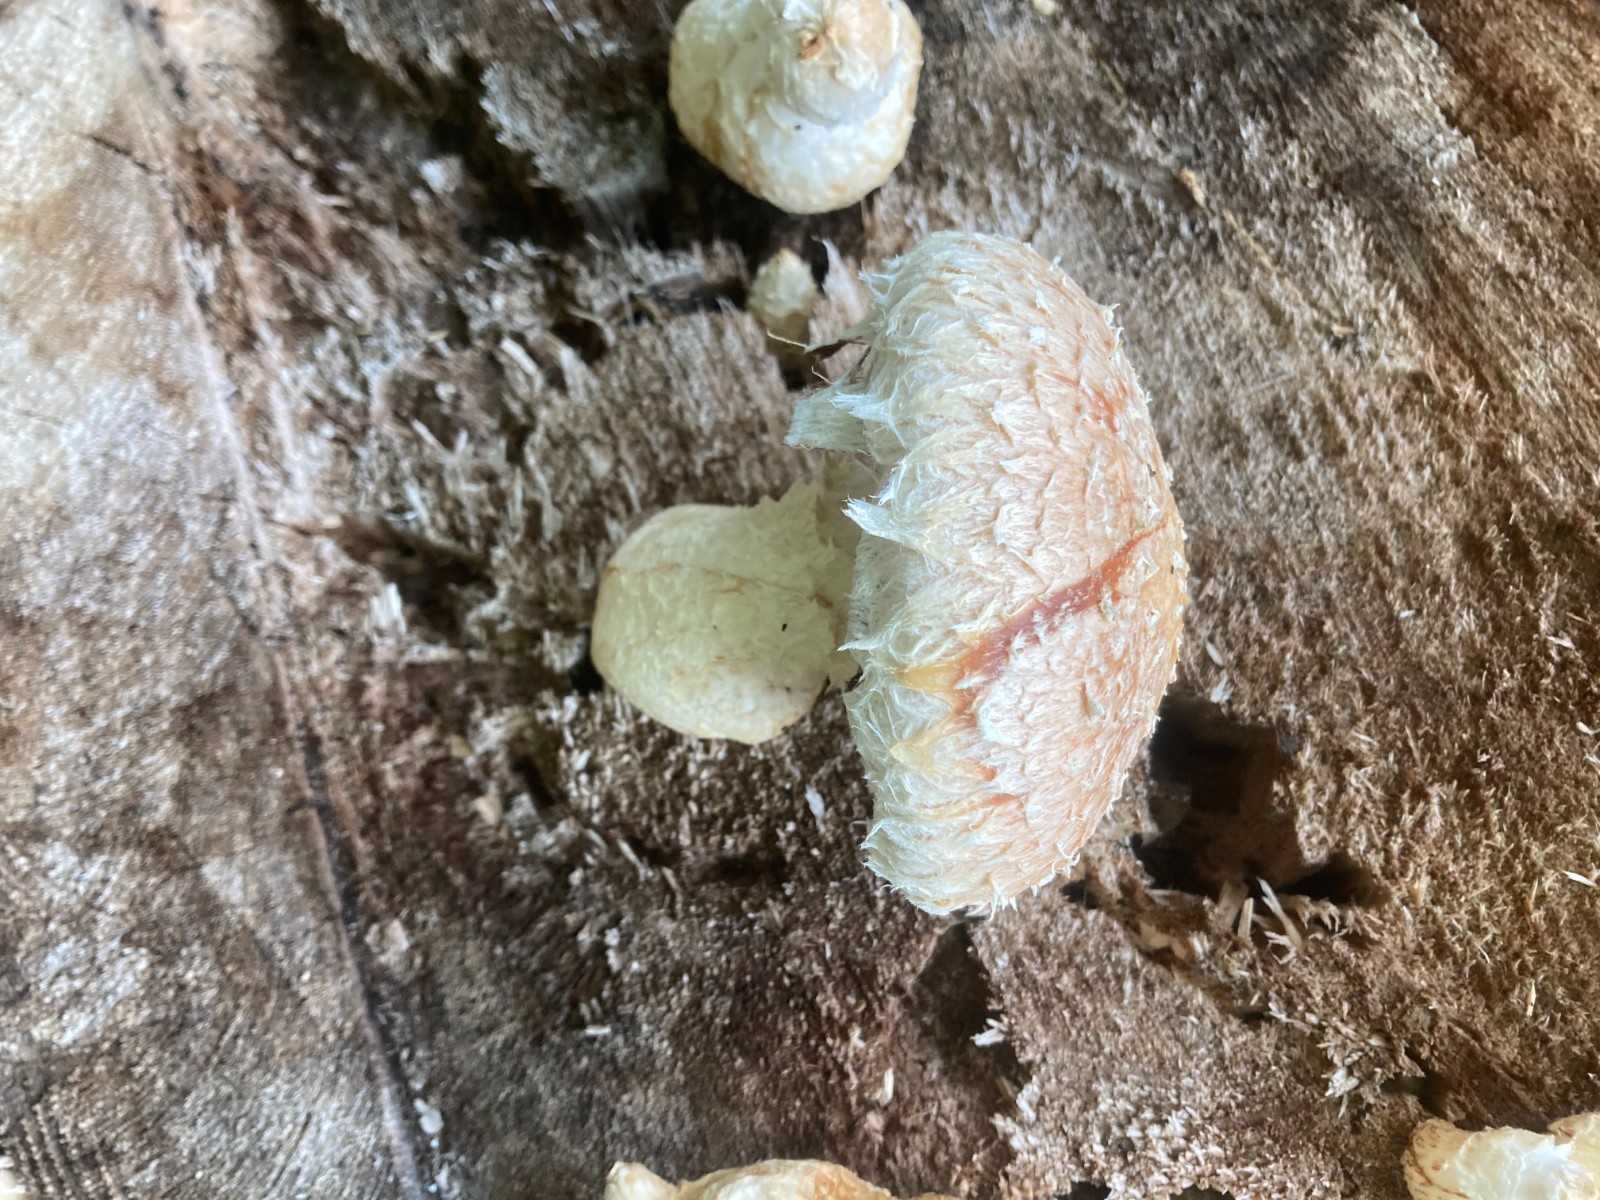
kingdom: Fungi
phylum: Basidiomycota
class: Agaricomycetes
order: Agaricales
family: Strophariaceae
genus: Pholiota
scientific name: Pholiota populnea
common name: poppel-kæmpeskælhat
